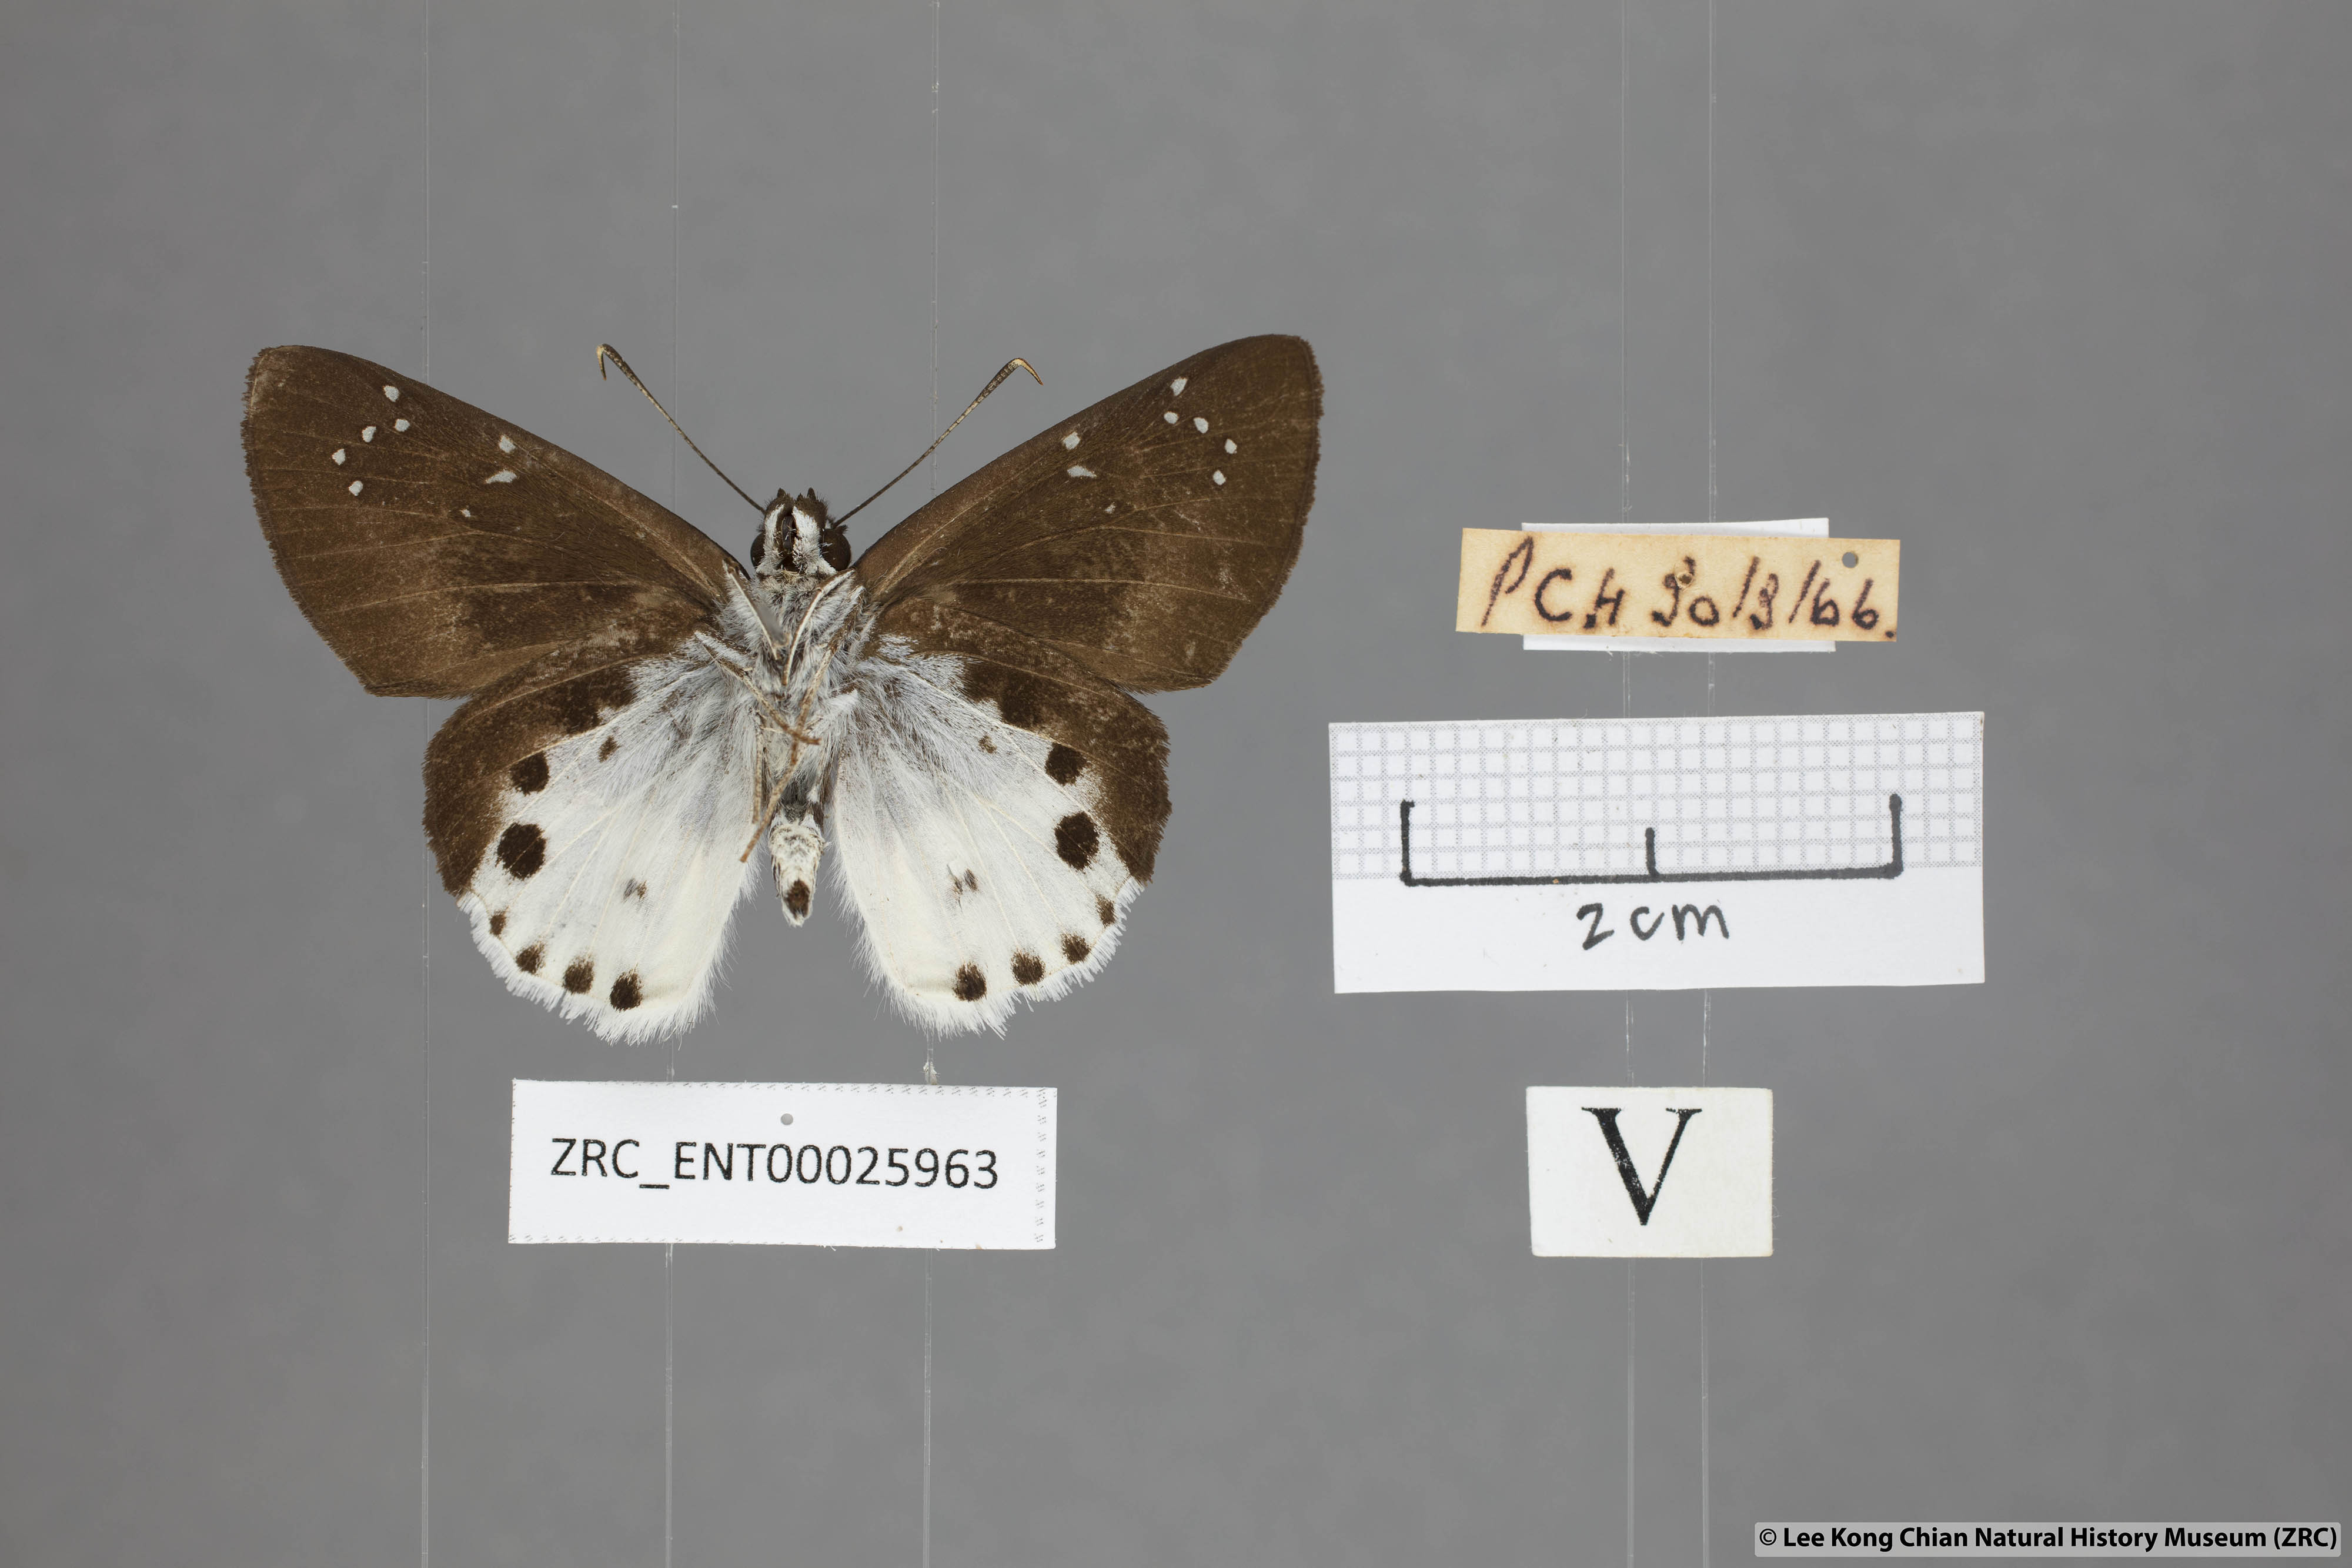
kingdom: Animalia
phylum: Arthropoda
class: Insecta
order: Lepidoptera
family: Hesperiidae
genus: Tagiades
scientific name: Tagiades cohaerens
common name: White-striped snow flat
